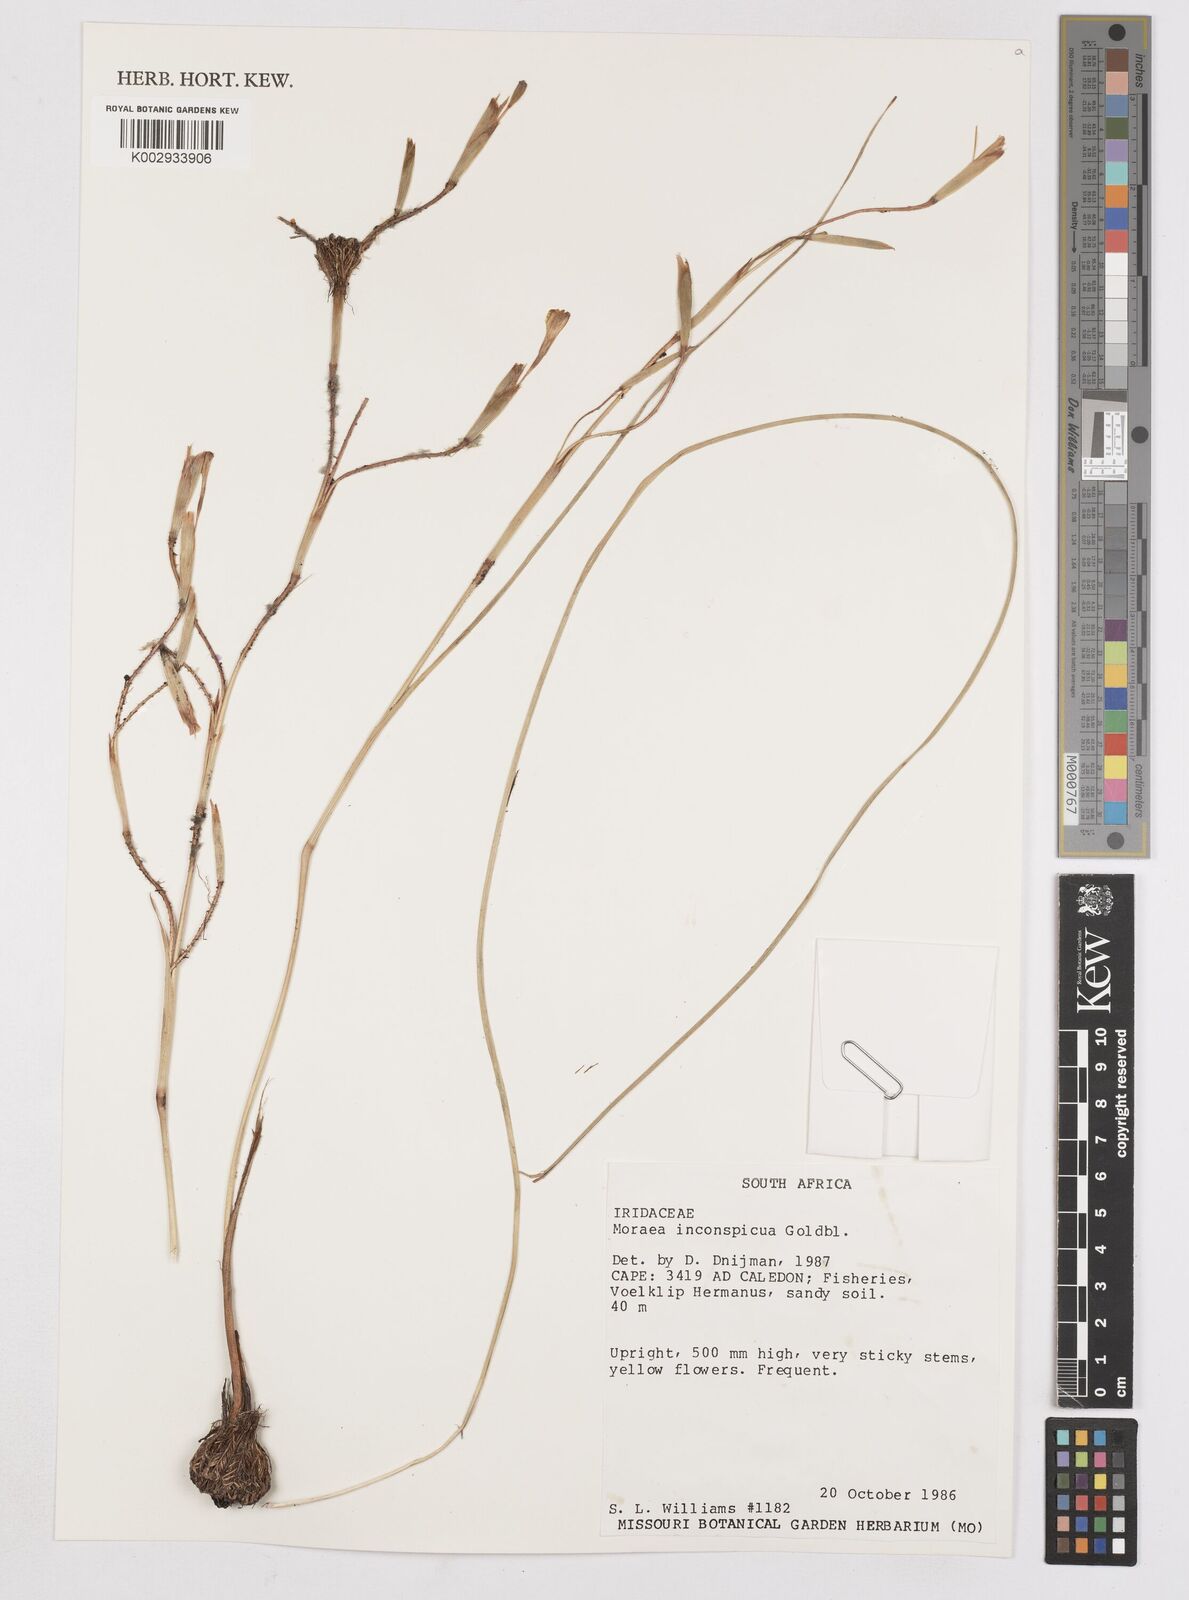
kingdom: Plantae
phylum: Tracheophyta
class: Liliopsida
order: Asparagales
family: Iridaceae
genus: Moraea
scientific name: Moraea inconspicua
